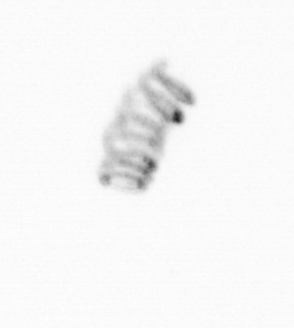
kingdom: Chromista
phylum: Ochrophyta
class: Bacillariophyceae
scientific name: Bacillariophyceae
